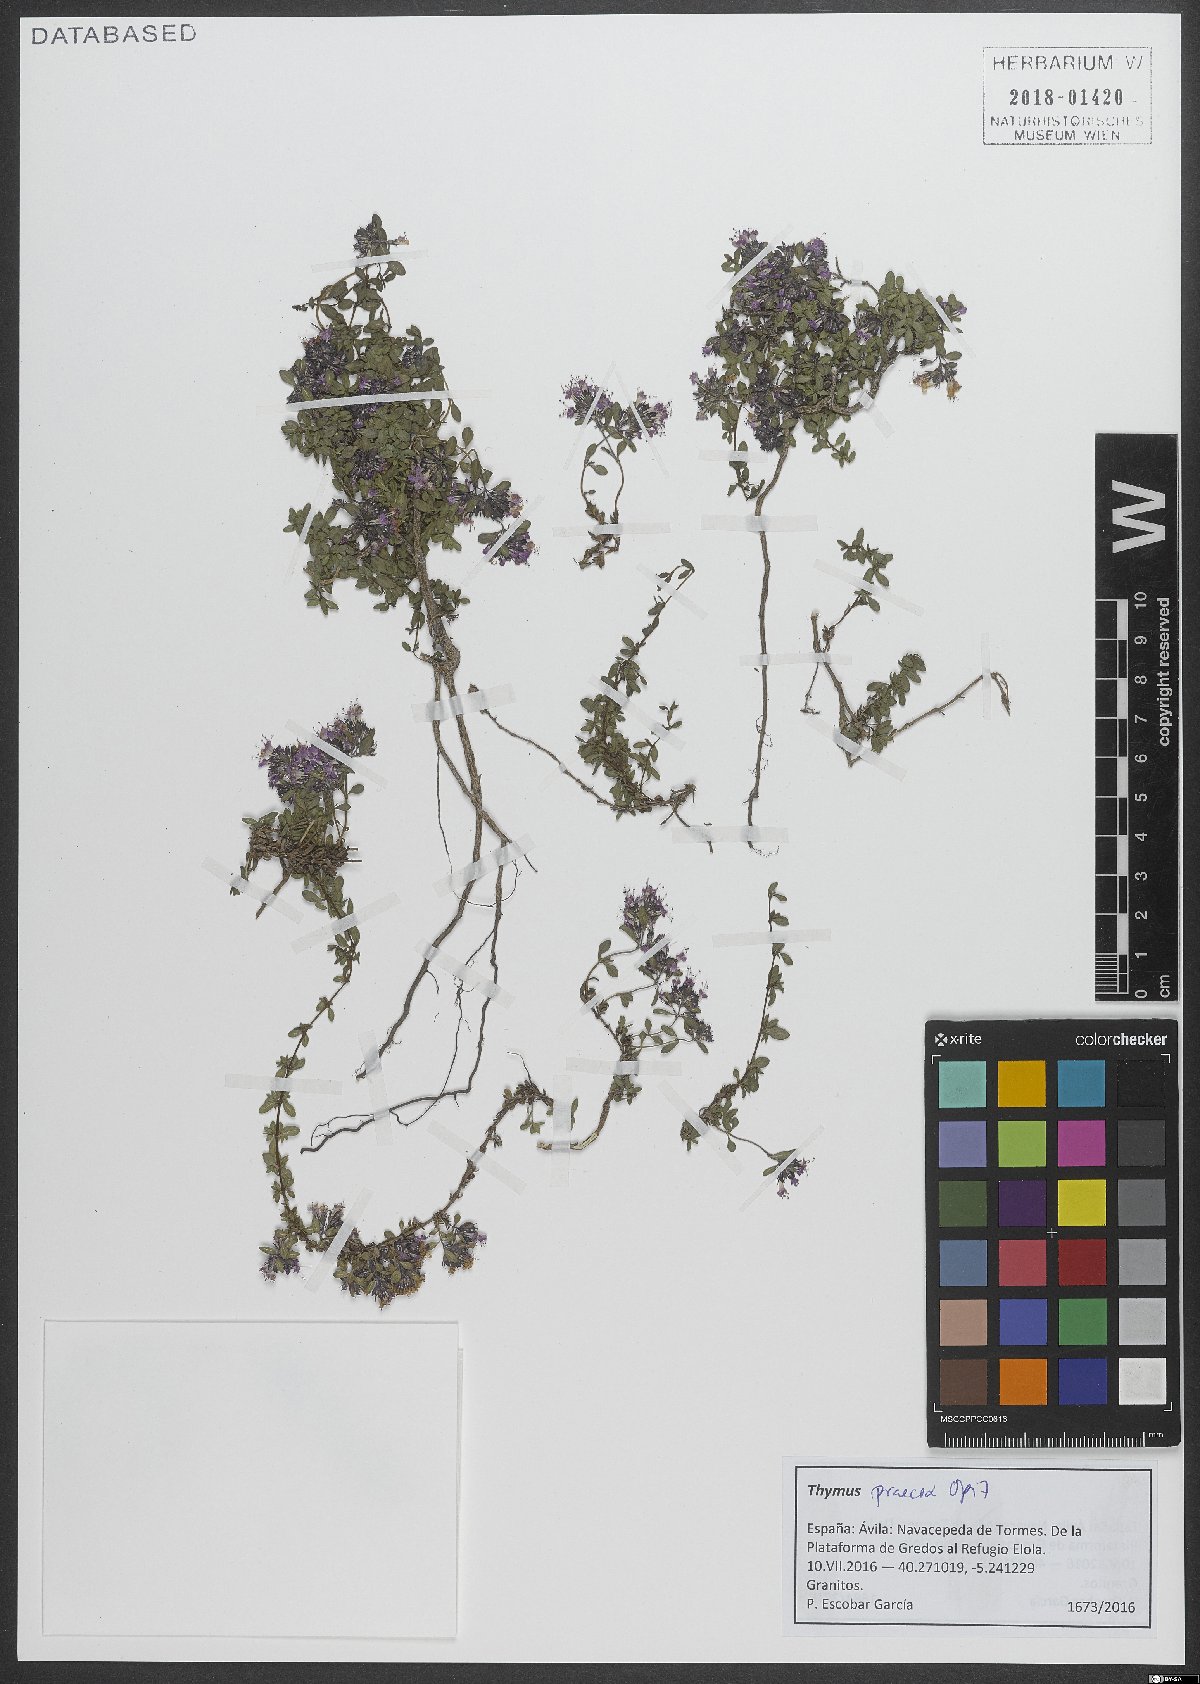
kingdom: Plantae
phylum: Tracheophyta
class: Magnoliopsida
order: Lamiales
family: Lamiaceae
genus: Thymus
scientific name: Thymus praecox
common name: Wild thyme
